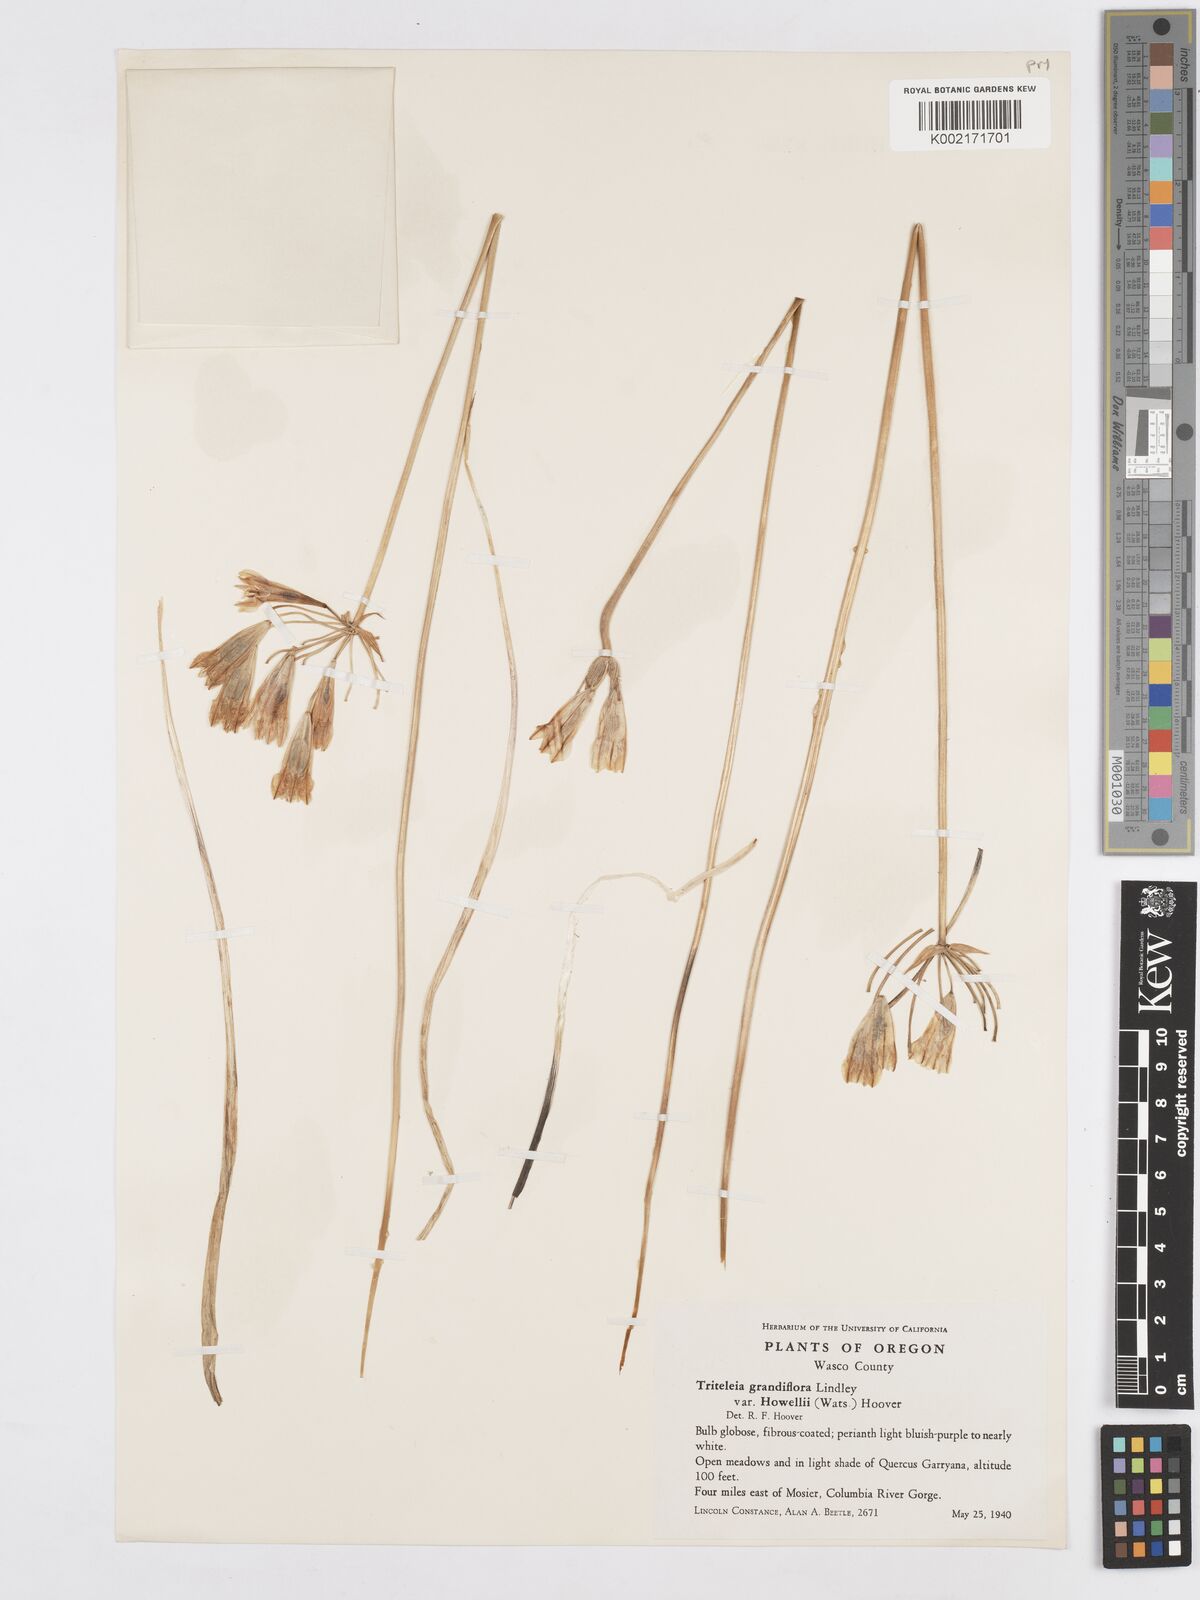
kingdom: Plantae
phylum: Tracheophyta
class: Liliopsida
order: Asparagales
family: Asparagaceae
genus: Triteleia
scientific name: Triteleia grandiflora
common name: Wild hyacinth
